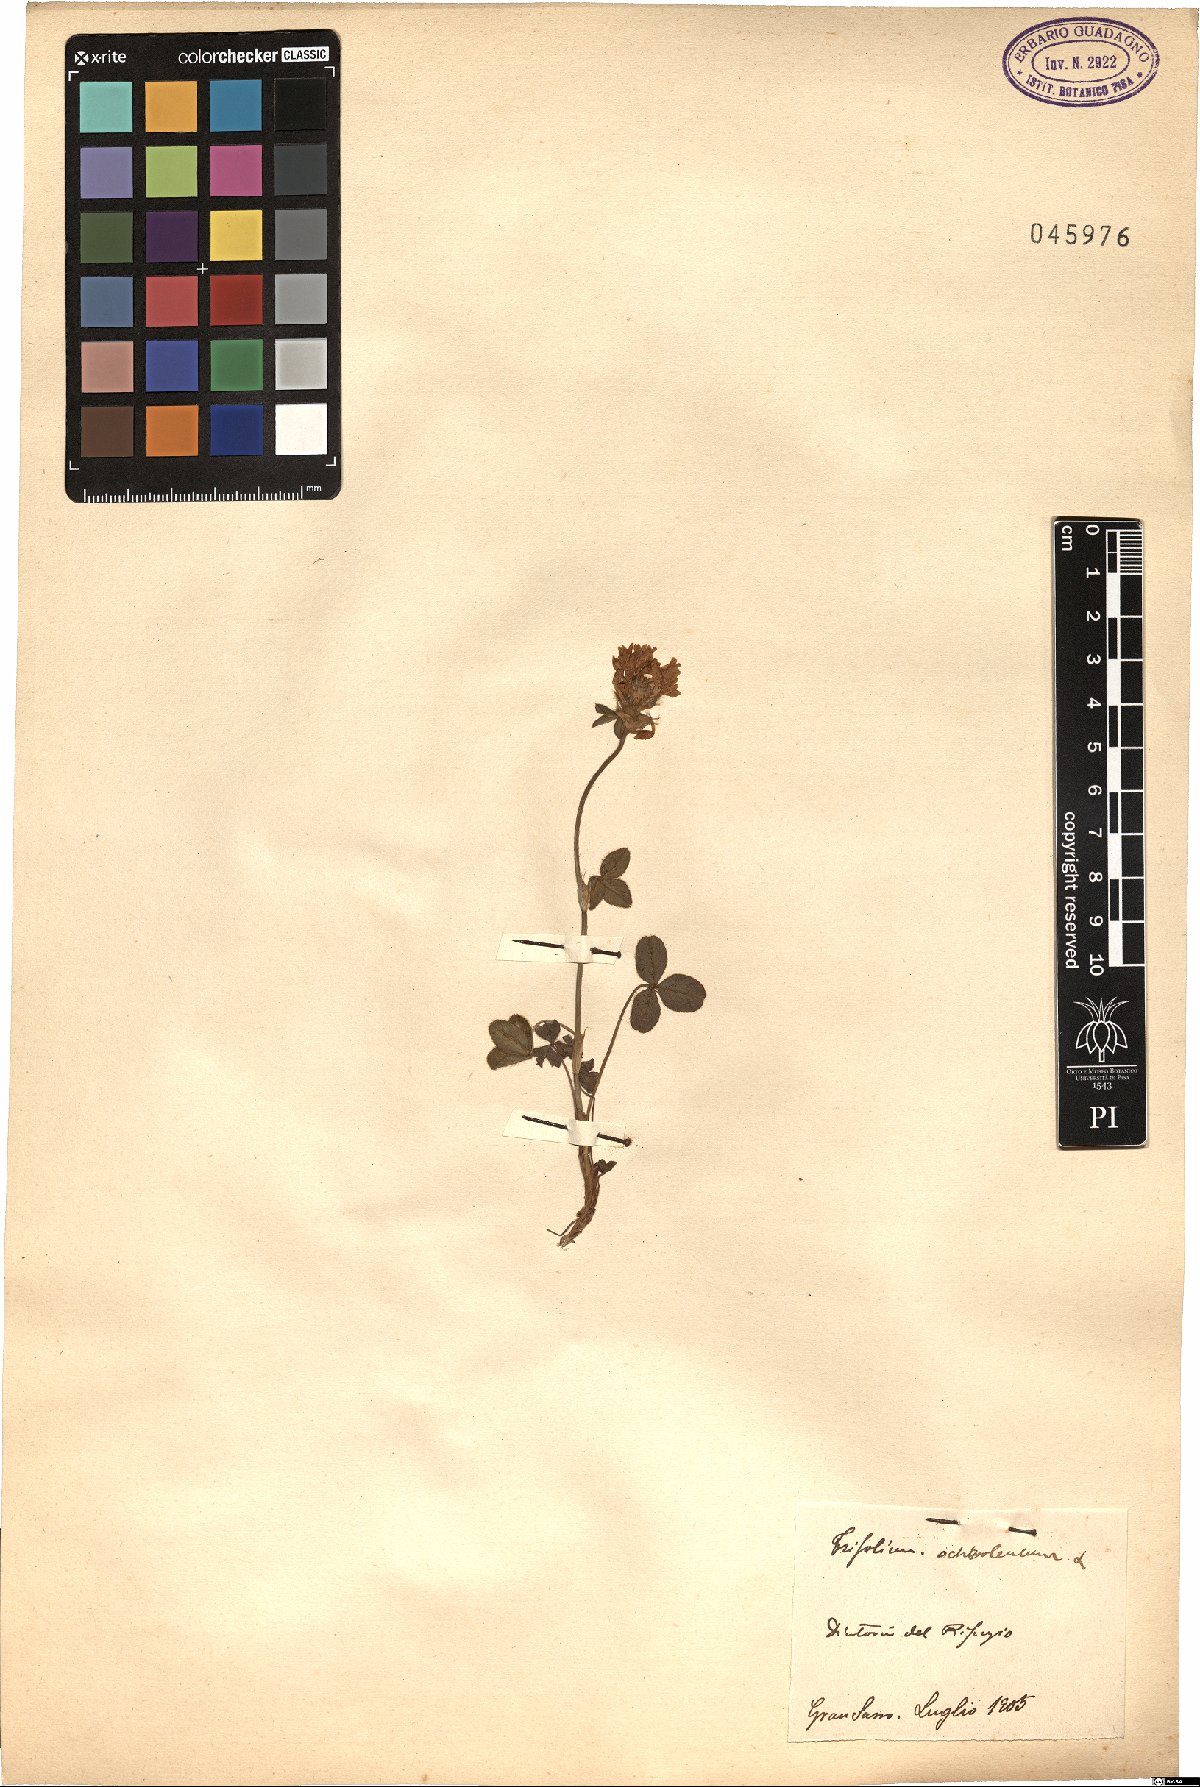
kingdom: Plantae
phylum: Tracheophyta
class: Magnoliopsida
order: Fabales
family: Fabaceae
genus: Trifolium
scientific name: Trifolium ochroleucon
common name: Sulphur clover
